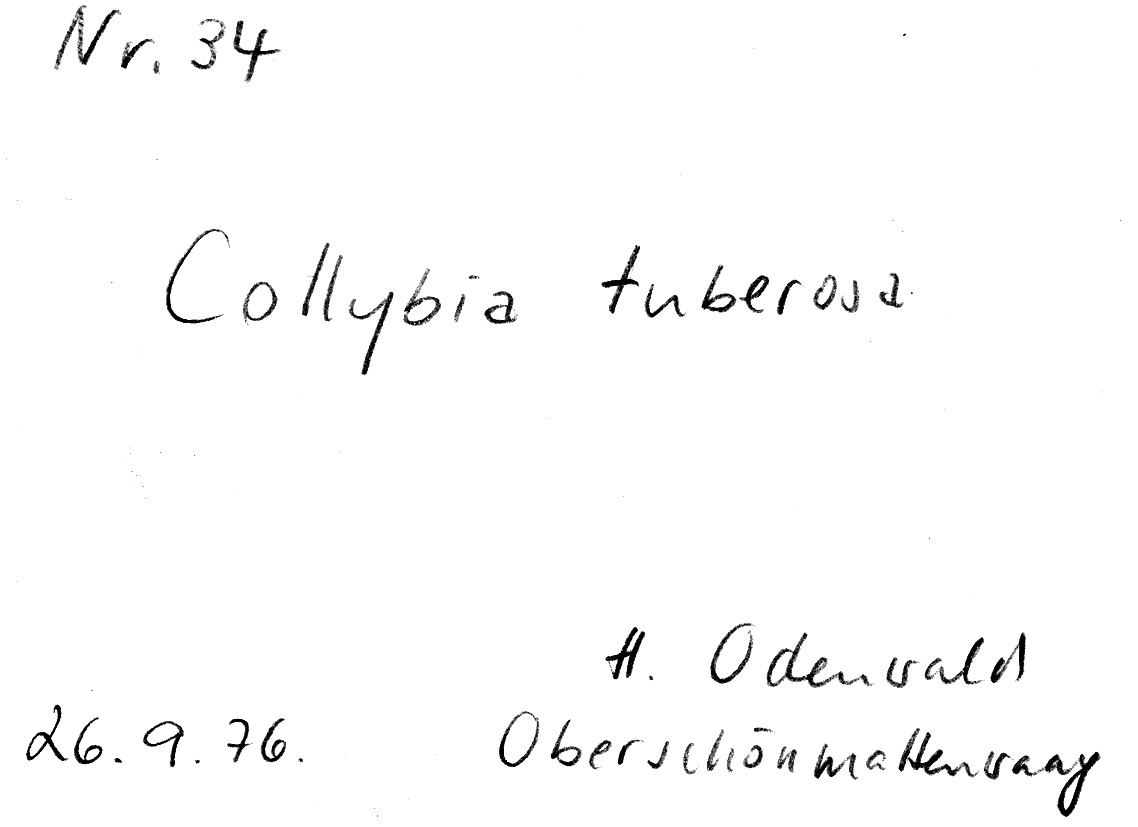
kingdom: Fungi
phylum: Basidiomycota
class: Agaricomycetes
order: Agaricales
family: Tricholomataceae
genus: Collybia
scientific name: Collybia tuberosa
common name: Lentil shanklet
